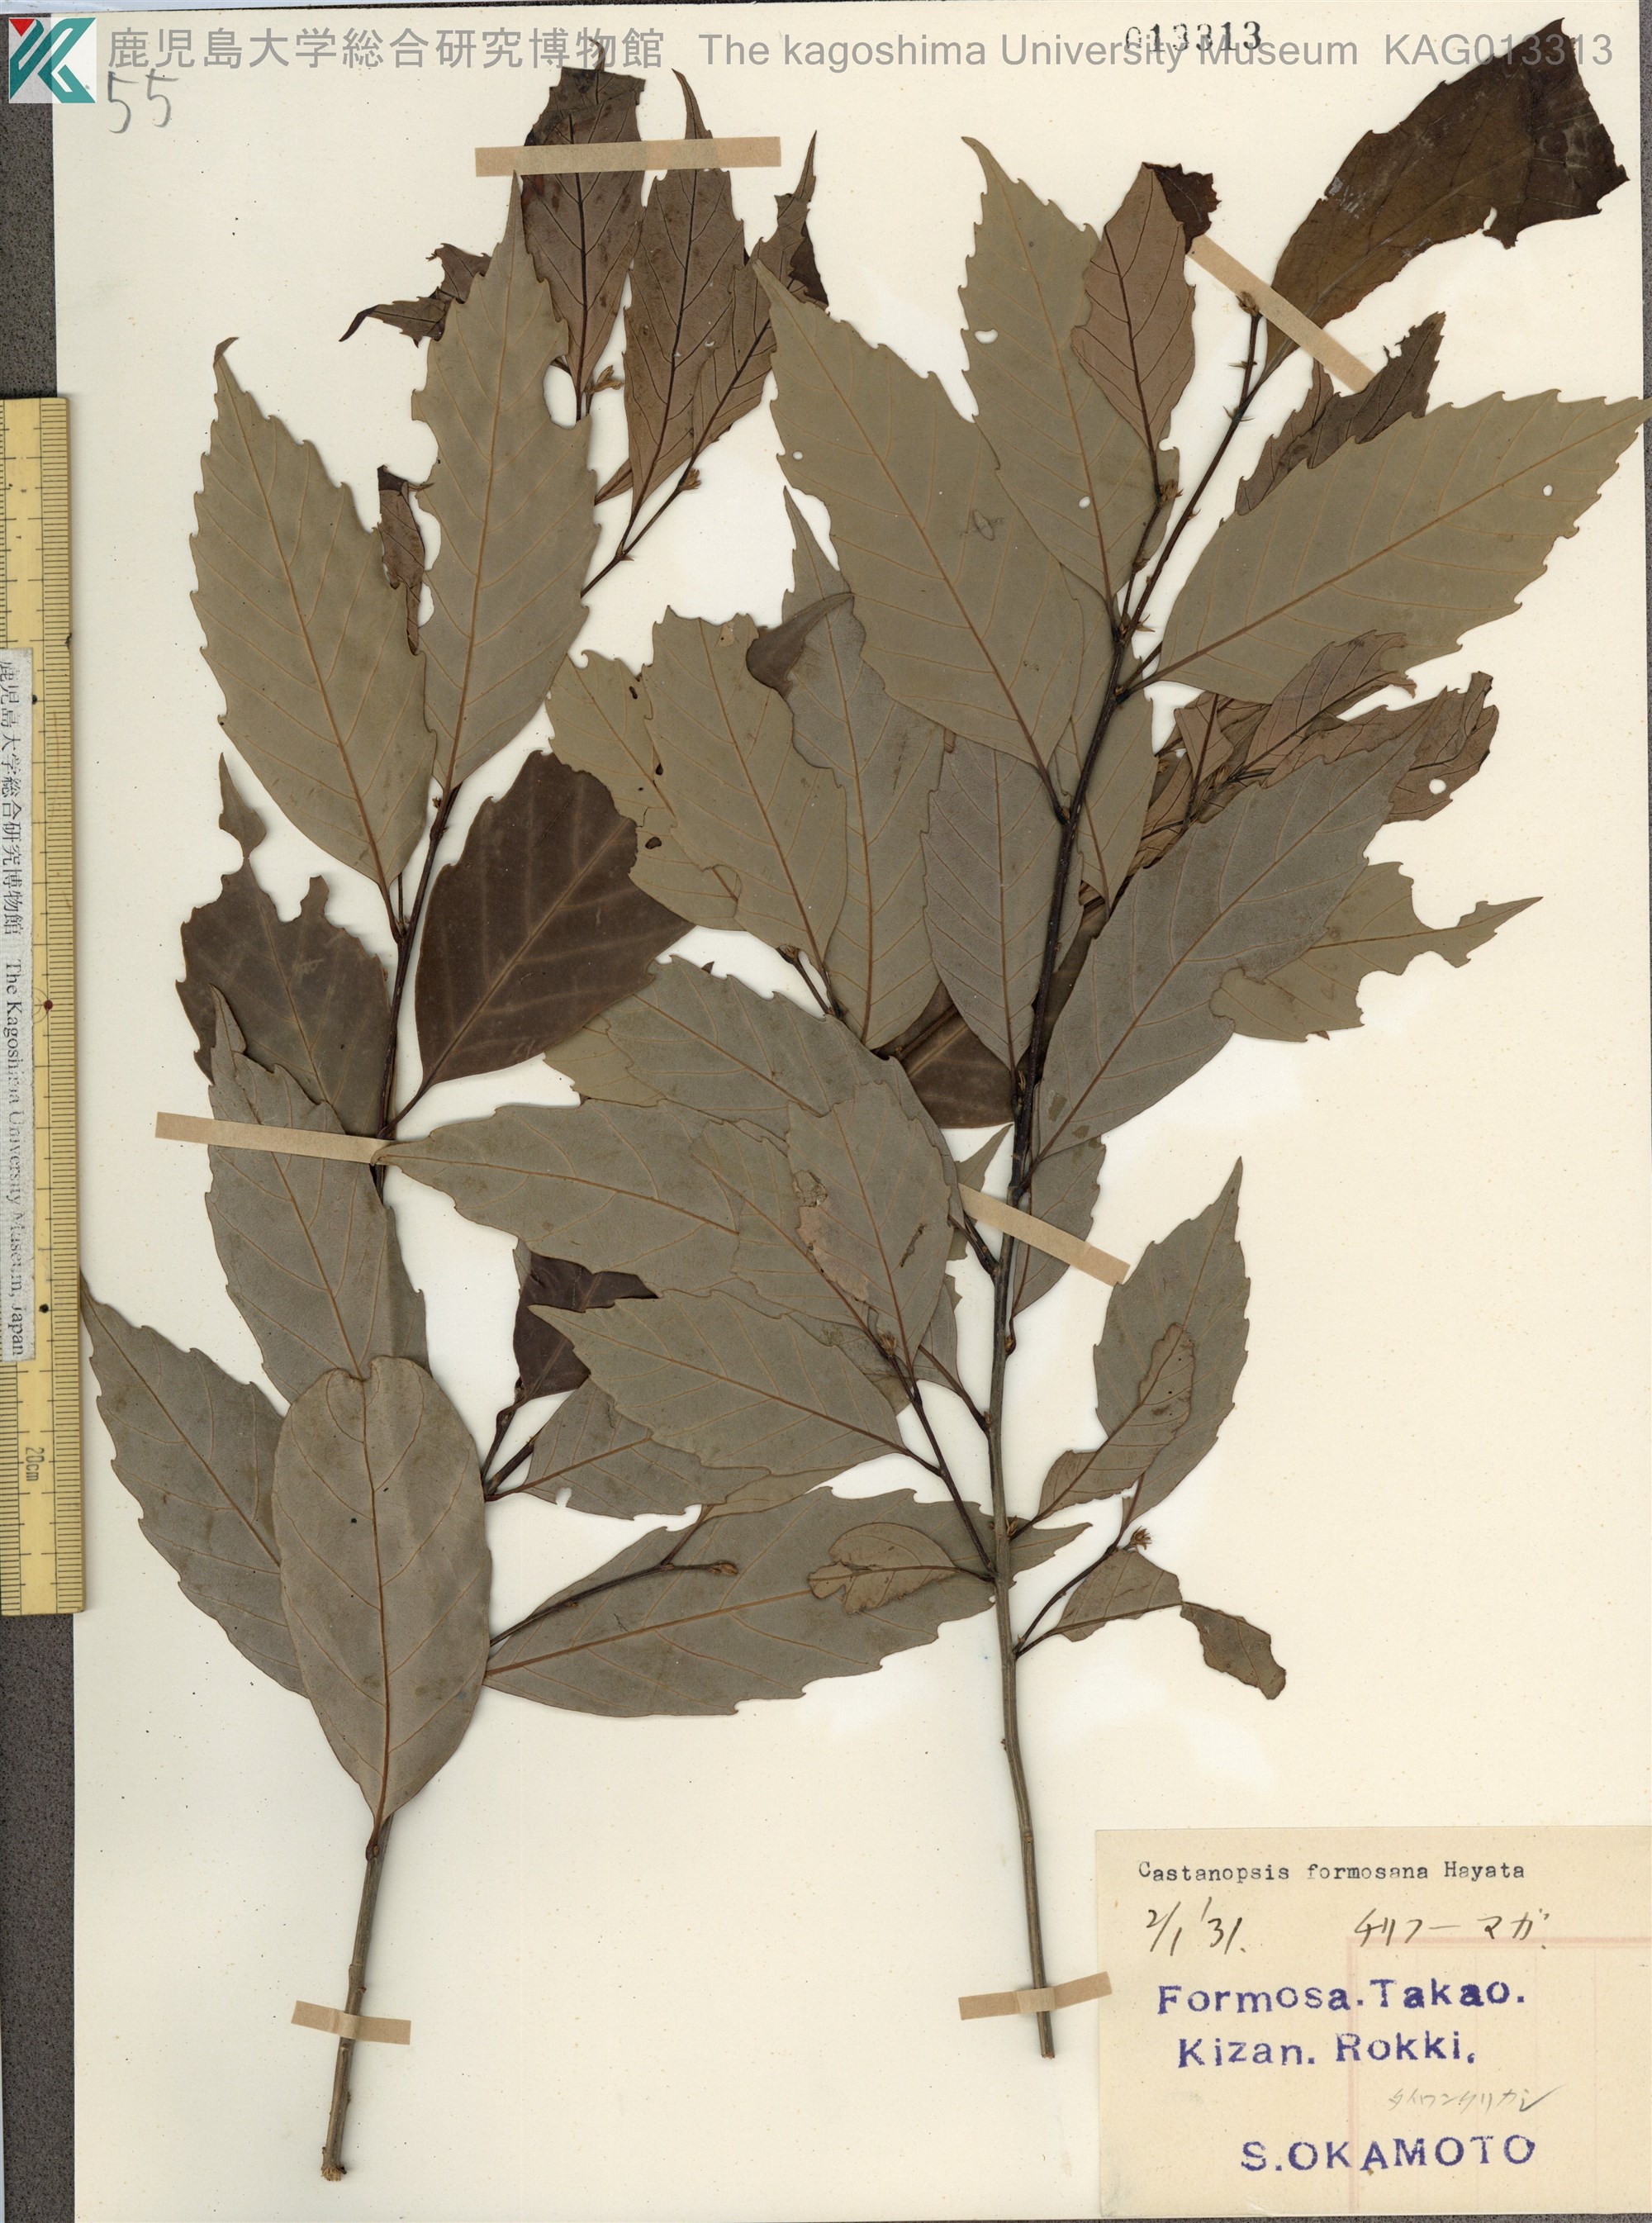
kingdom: Plantae
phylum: Tracheophyta
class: Magnoliopsida
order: Fagales
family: Fagaceae
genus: Castanopsis
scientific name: Castanopsis formosana
